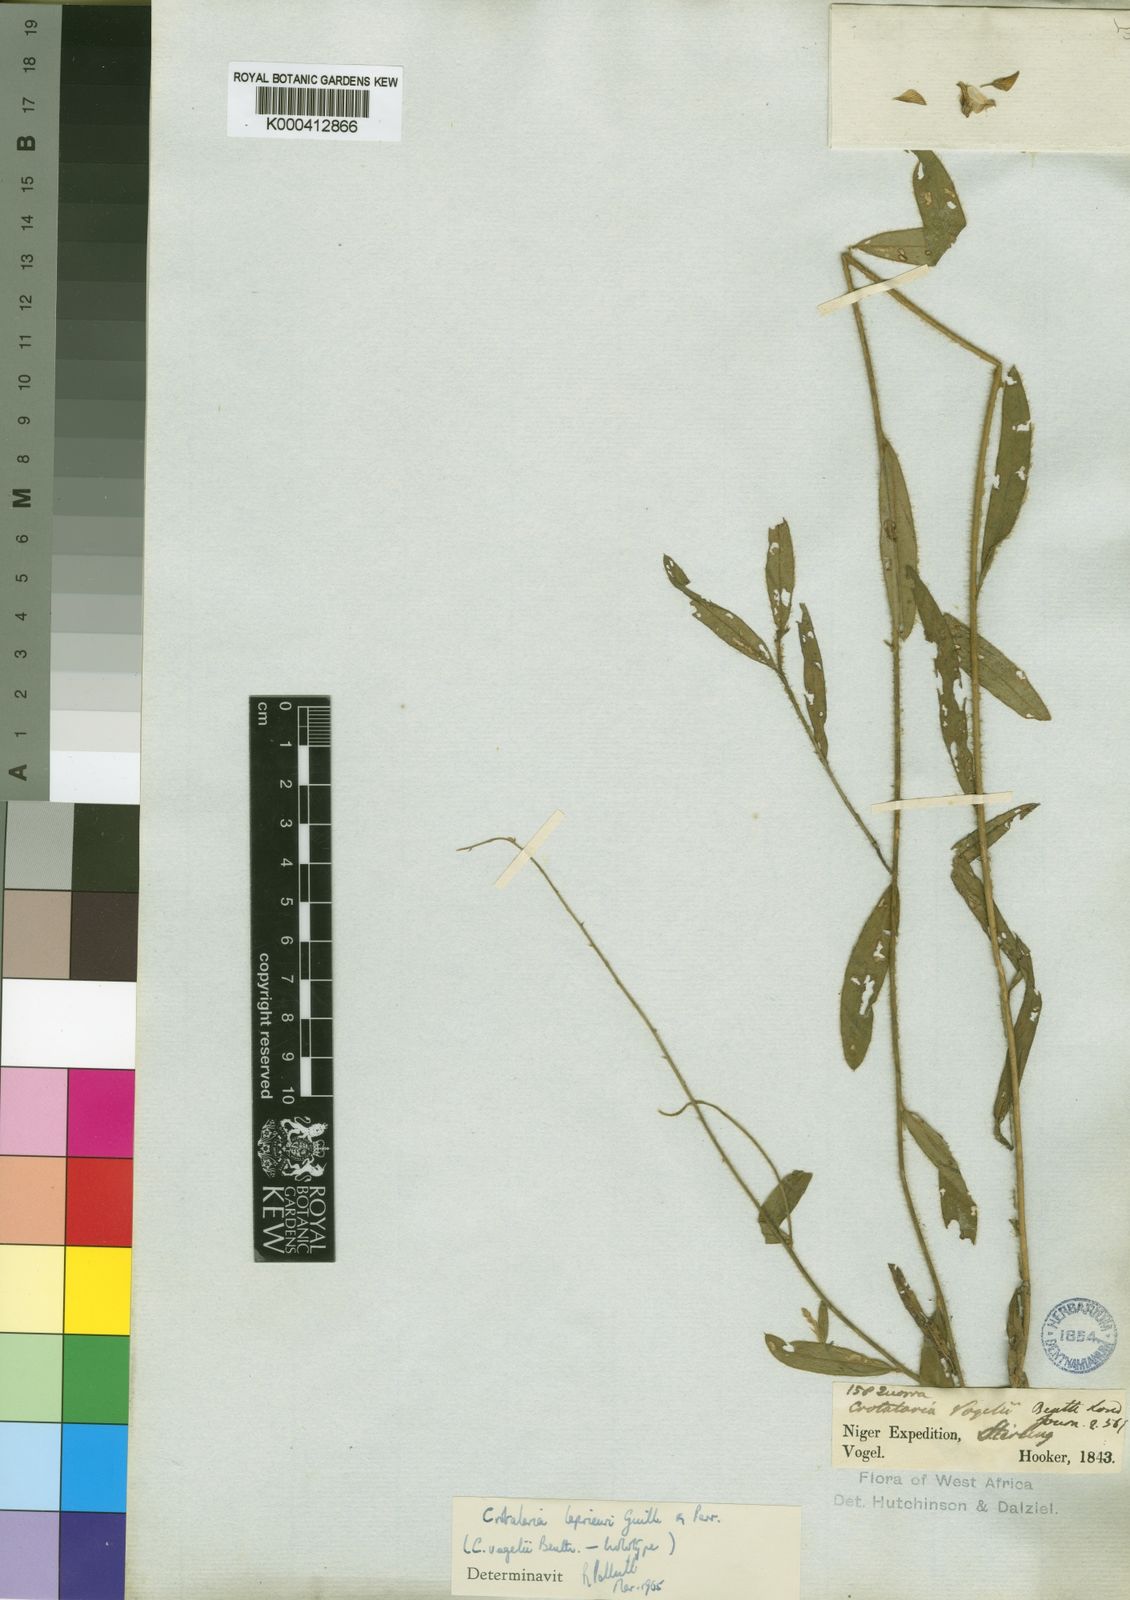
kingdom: Plantae
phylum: Tracheophyta
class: Magnoliopsida
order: Fabales
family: Fabaceae
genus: Crotalaria
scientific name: Crotalaria leprieurii
